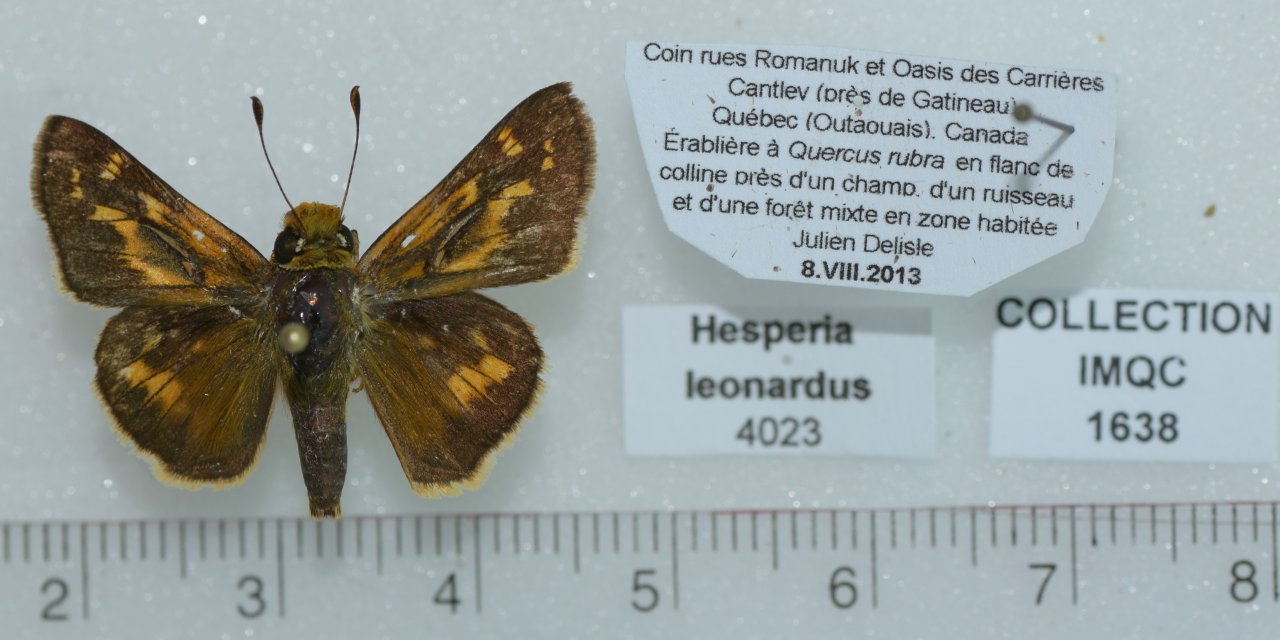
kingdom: Animalia
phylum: Arthropoda
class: Insecta
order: Lepidoptera
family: Hesperiidae
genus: Hesperia
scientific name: Hesperia leonardus
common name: Leonard's Skipper
